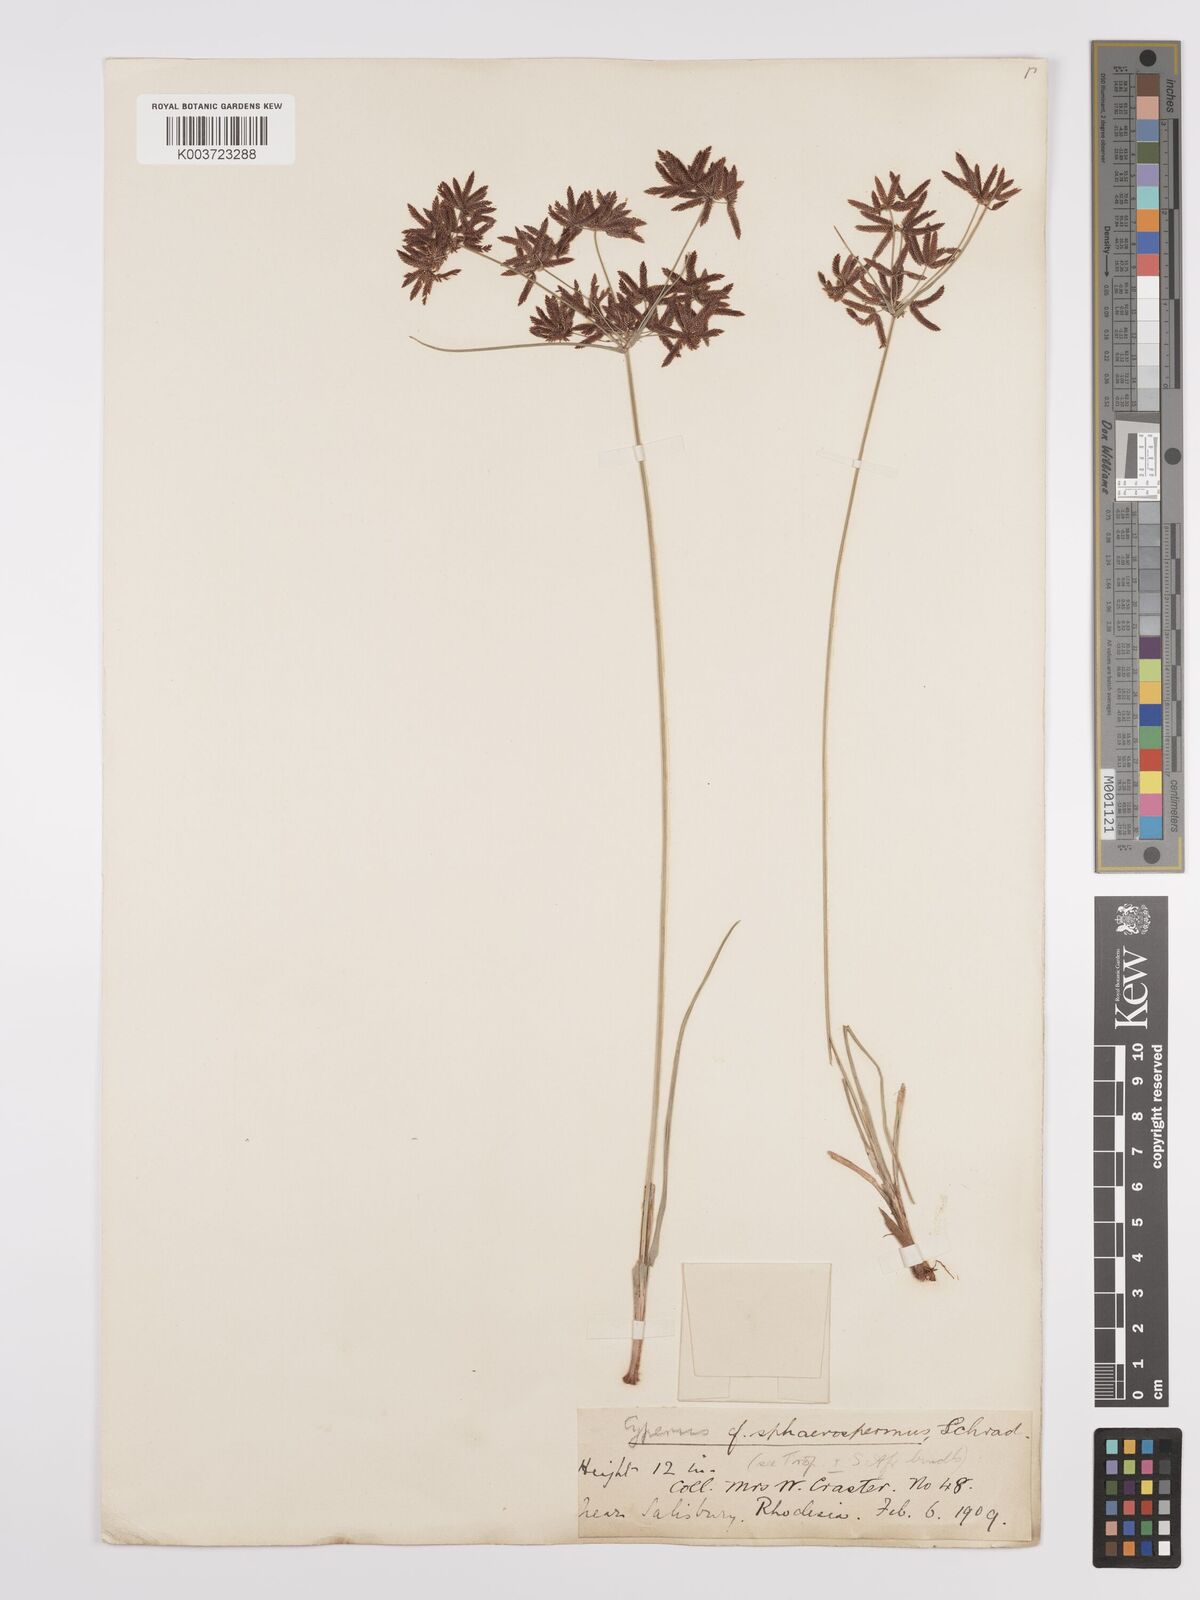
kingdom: Plantae
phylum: Tracheophyta
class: Liliopsida
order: Poales
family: Cyperaceae
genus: Cyperus
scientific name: Cyperus denudatus
